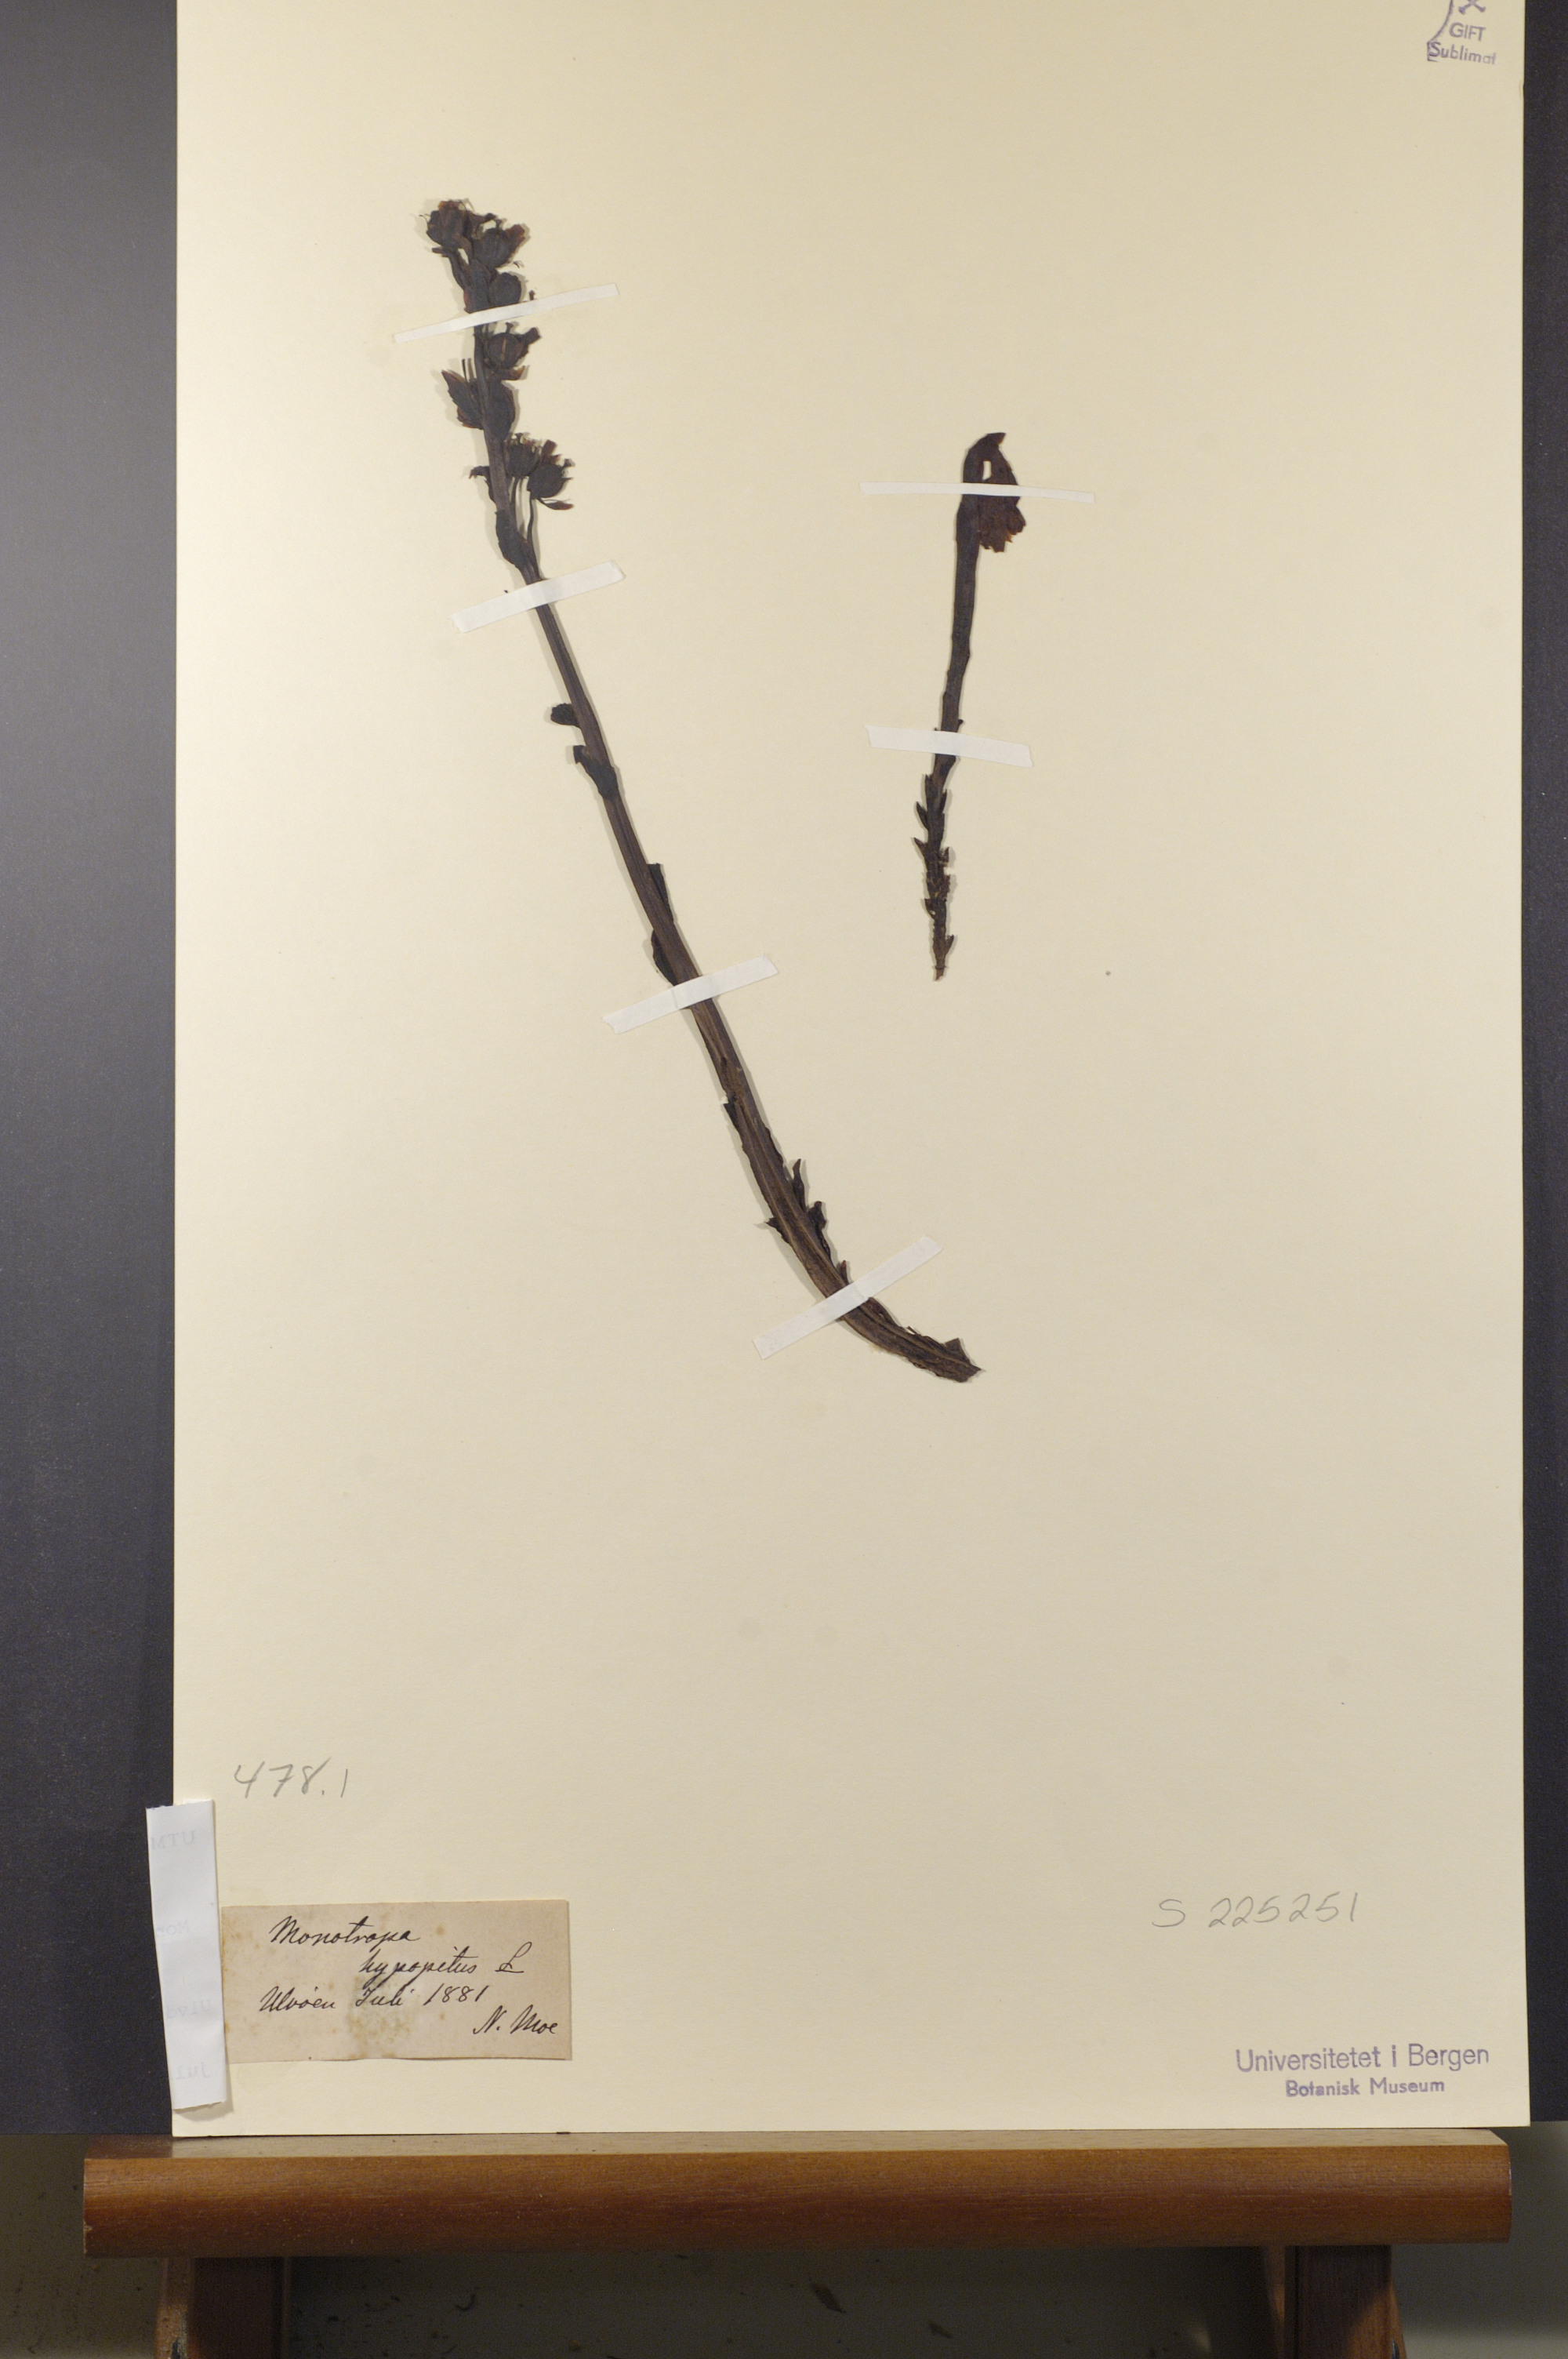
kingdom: Plantae
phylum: Tracheophyta
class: Magnoliopsida
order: Ericales
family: Ericaceae
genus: Hypopitys
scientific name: Hypopitys monotropa
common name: Yellow bird's-nest
